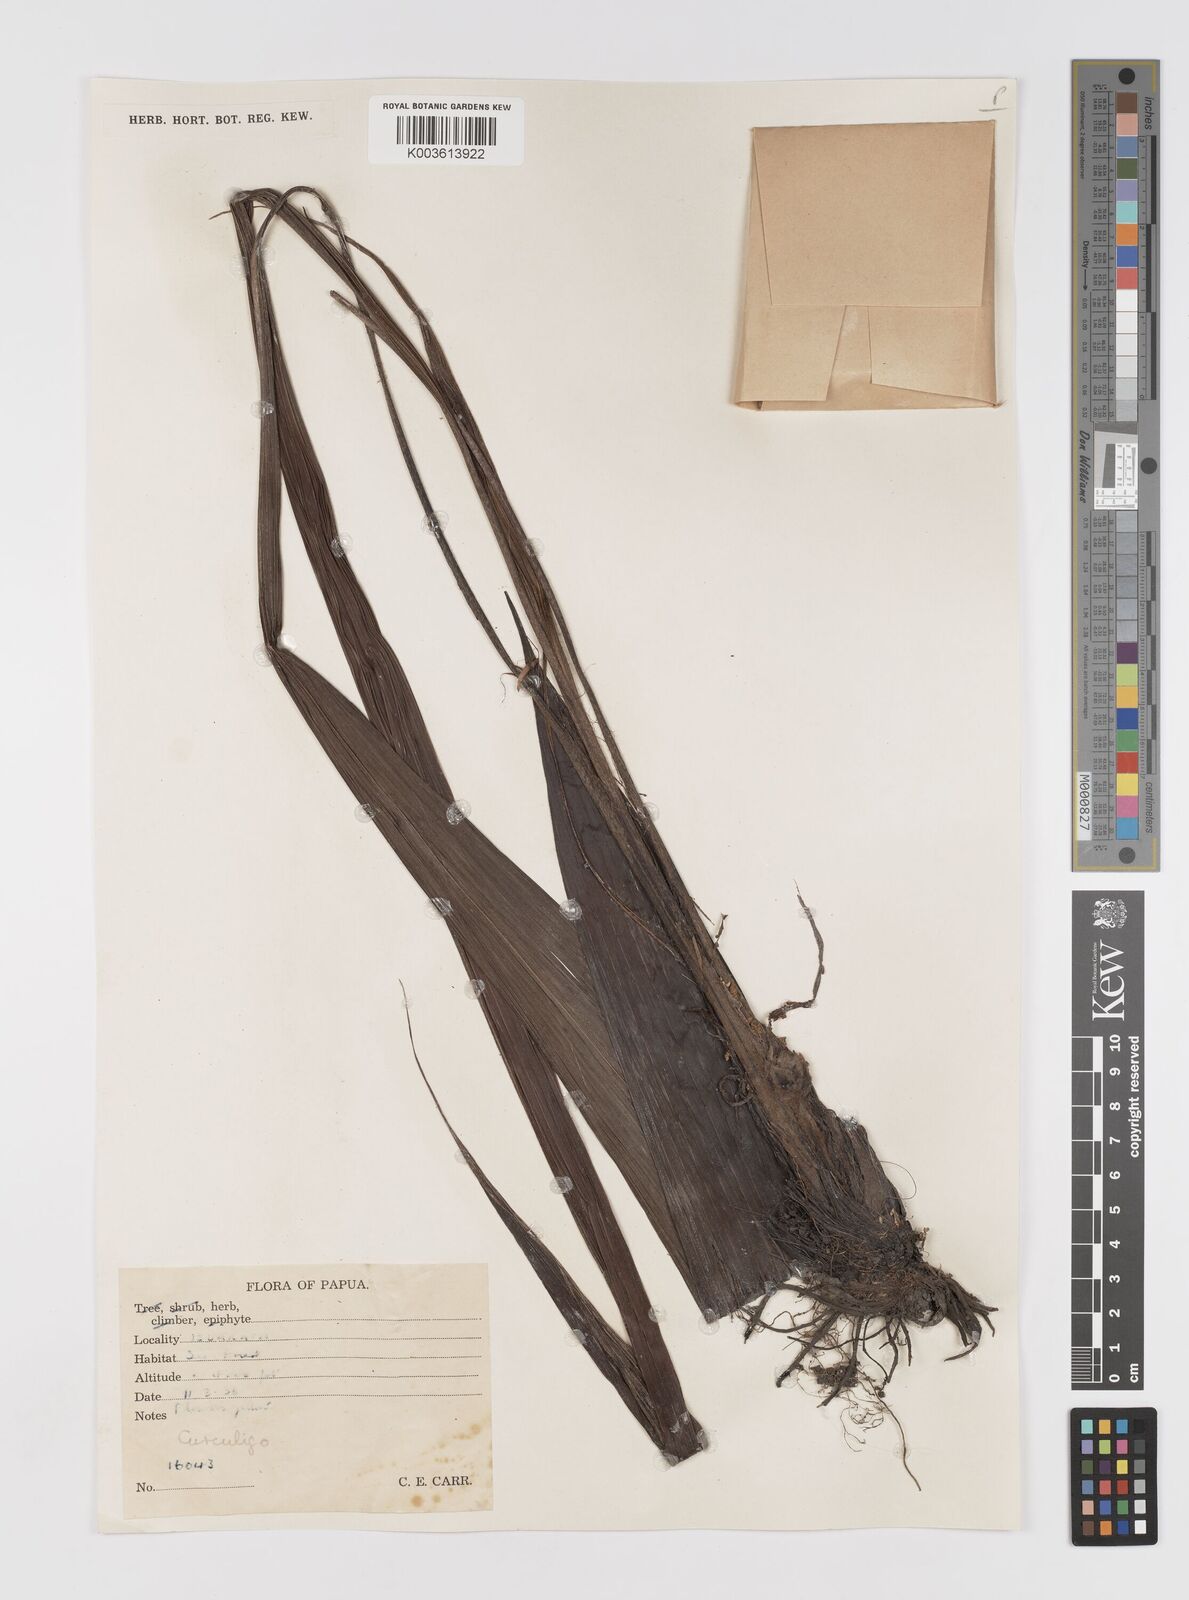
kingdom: Plantae
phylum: Tracheophyta
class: Liliopsida
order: Asparagales
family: Hypoxidaceae
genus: Curculigo
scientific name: Curculigo
